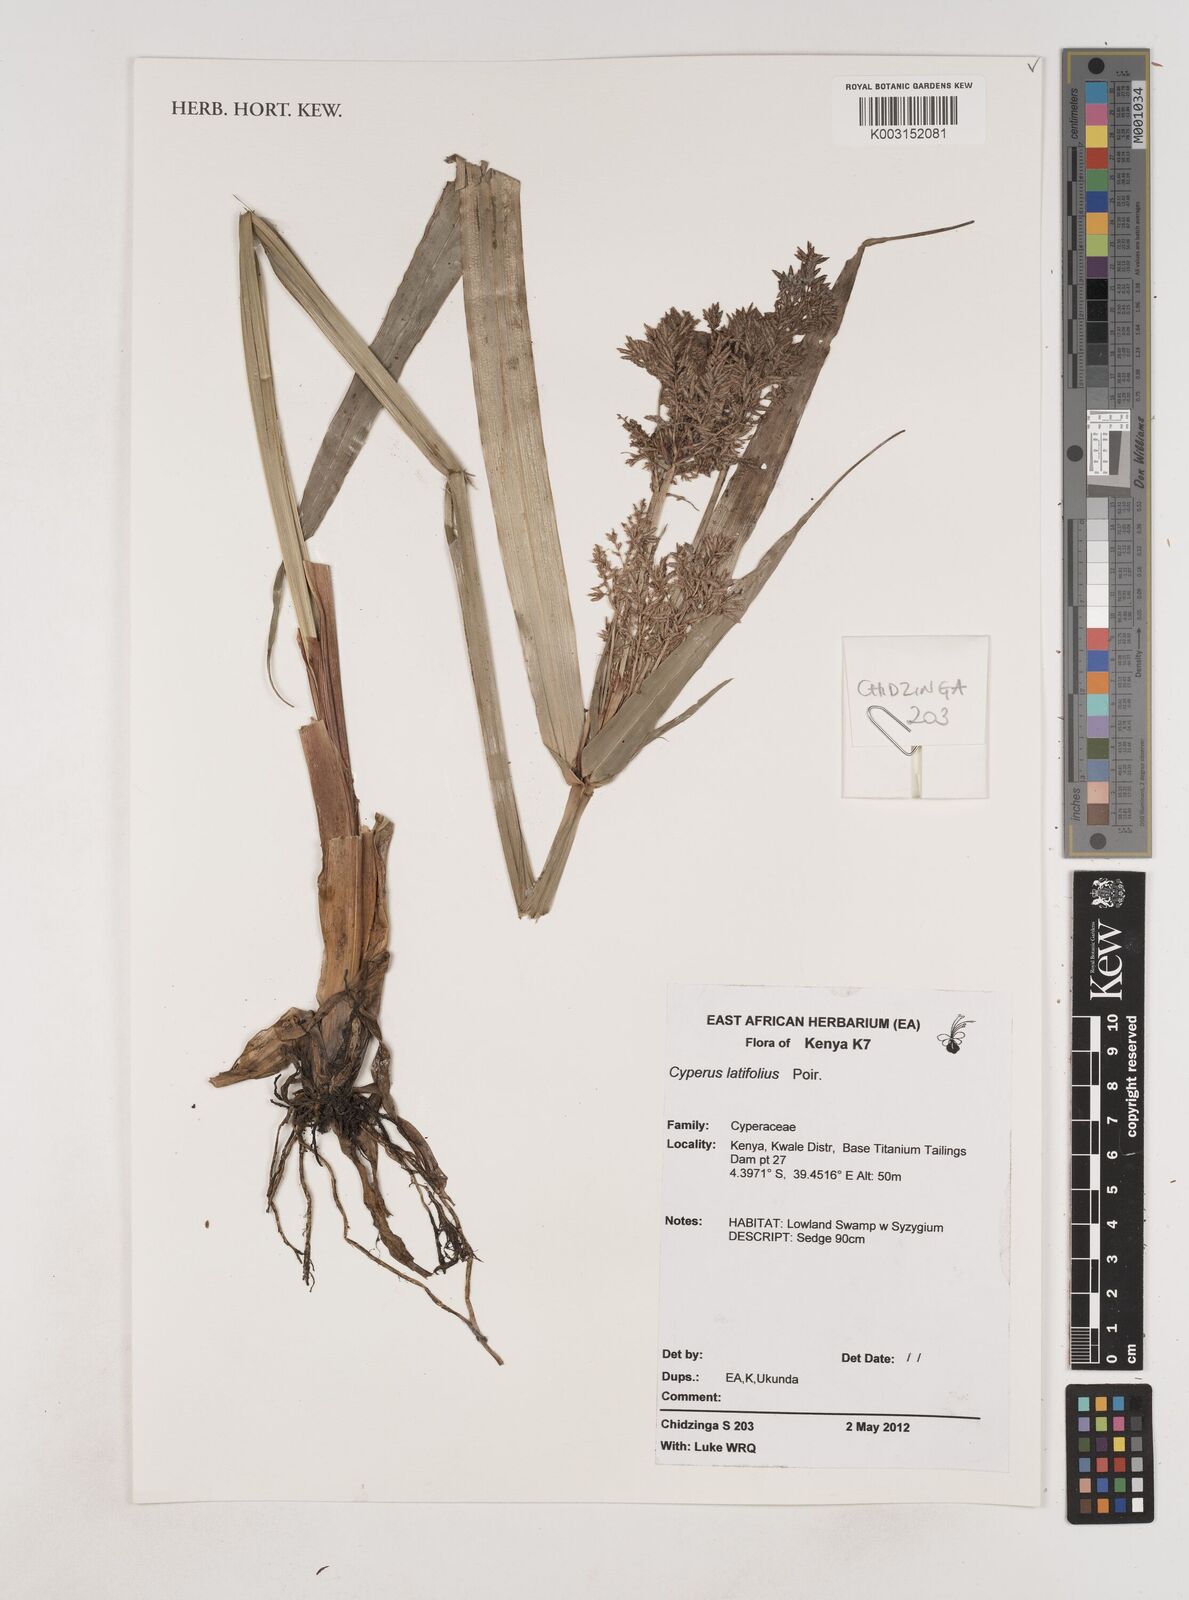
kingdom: Plantae
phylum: Tracheophyta
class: Liliopsida
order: Poales
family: Cyperaceae
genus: Cyperus
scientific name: Cyperus latifolius
